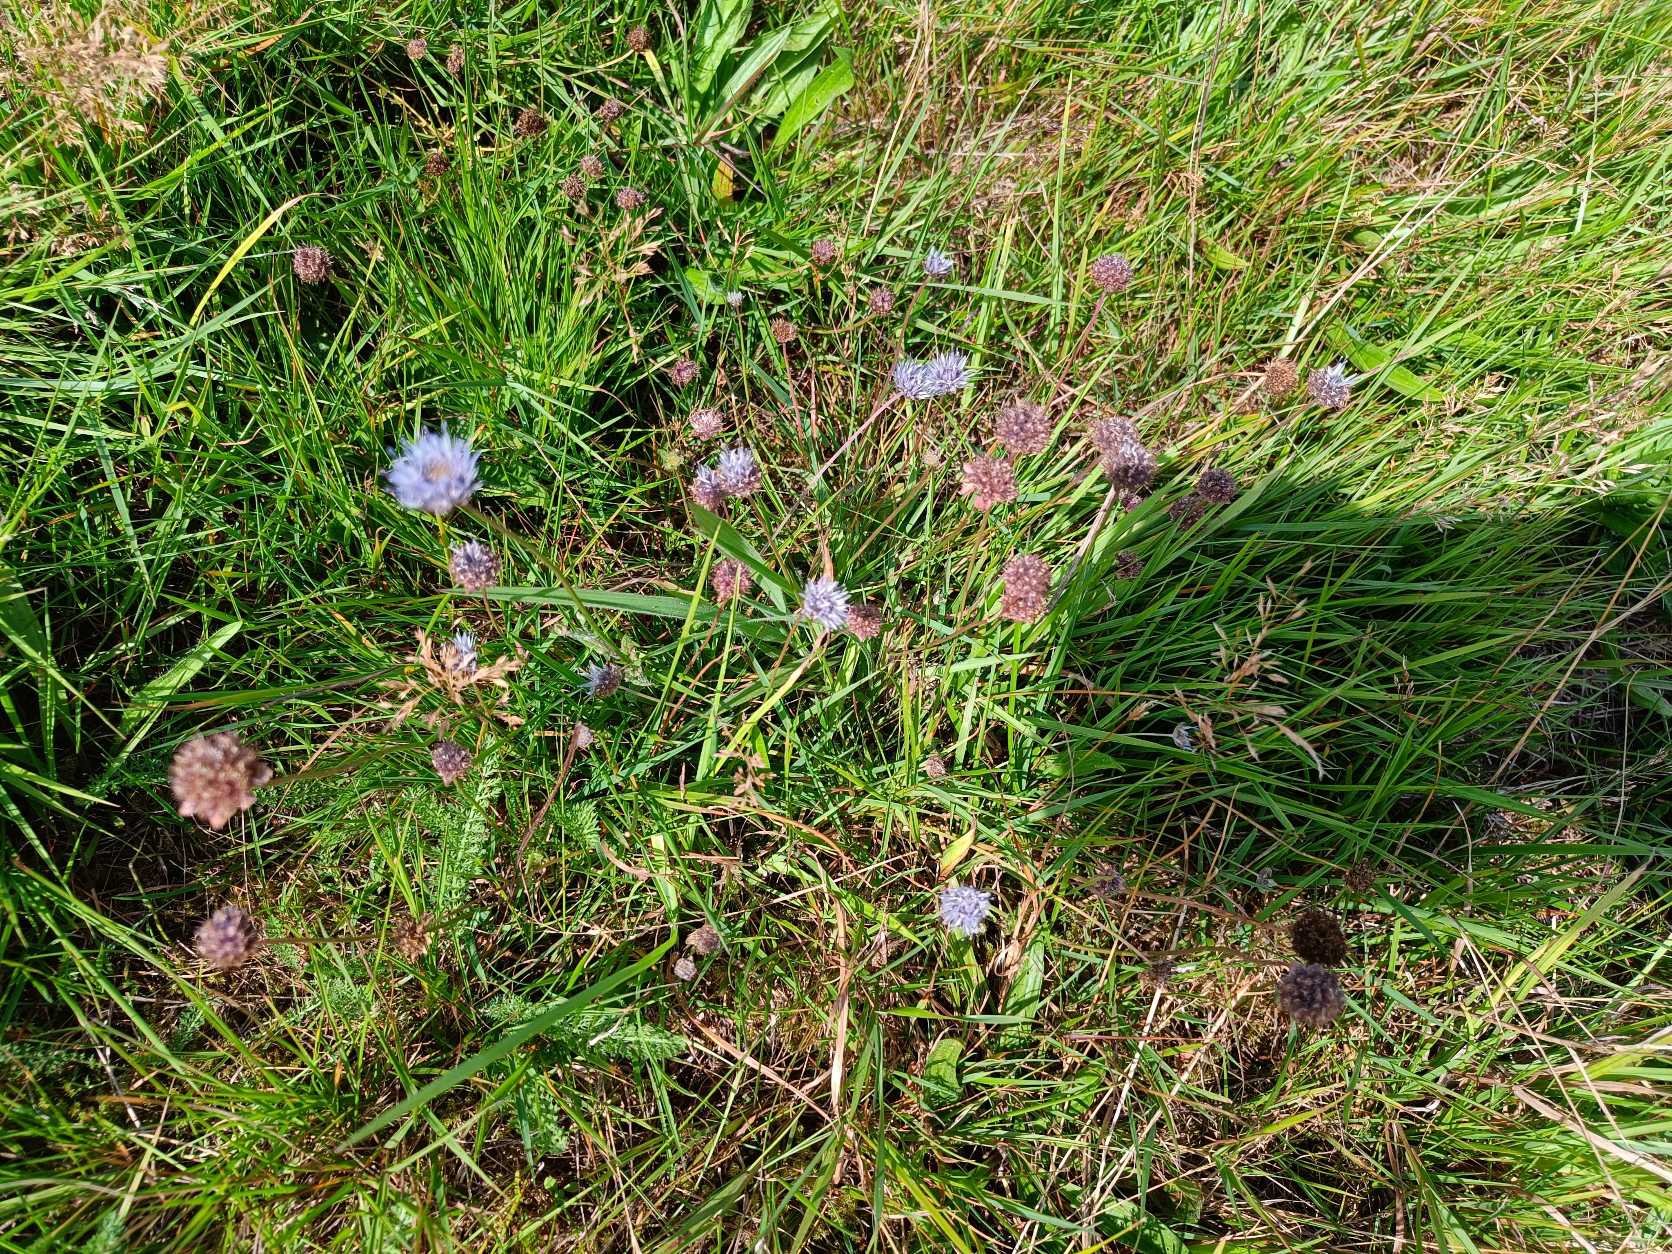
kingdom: Plantae
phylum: Tracheophyta
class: Magnoliopsida
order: Asterales
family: Campanulaceae
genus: Jasione
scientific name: Jasione montana
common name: Blåmunke
